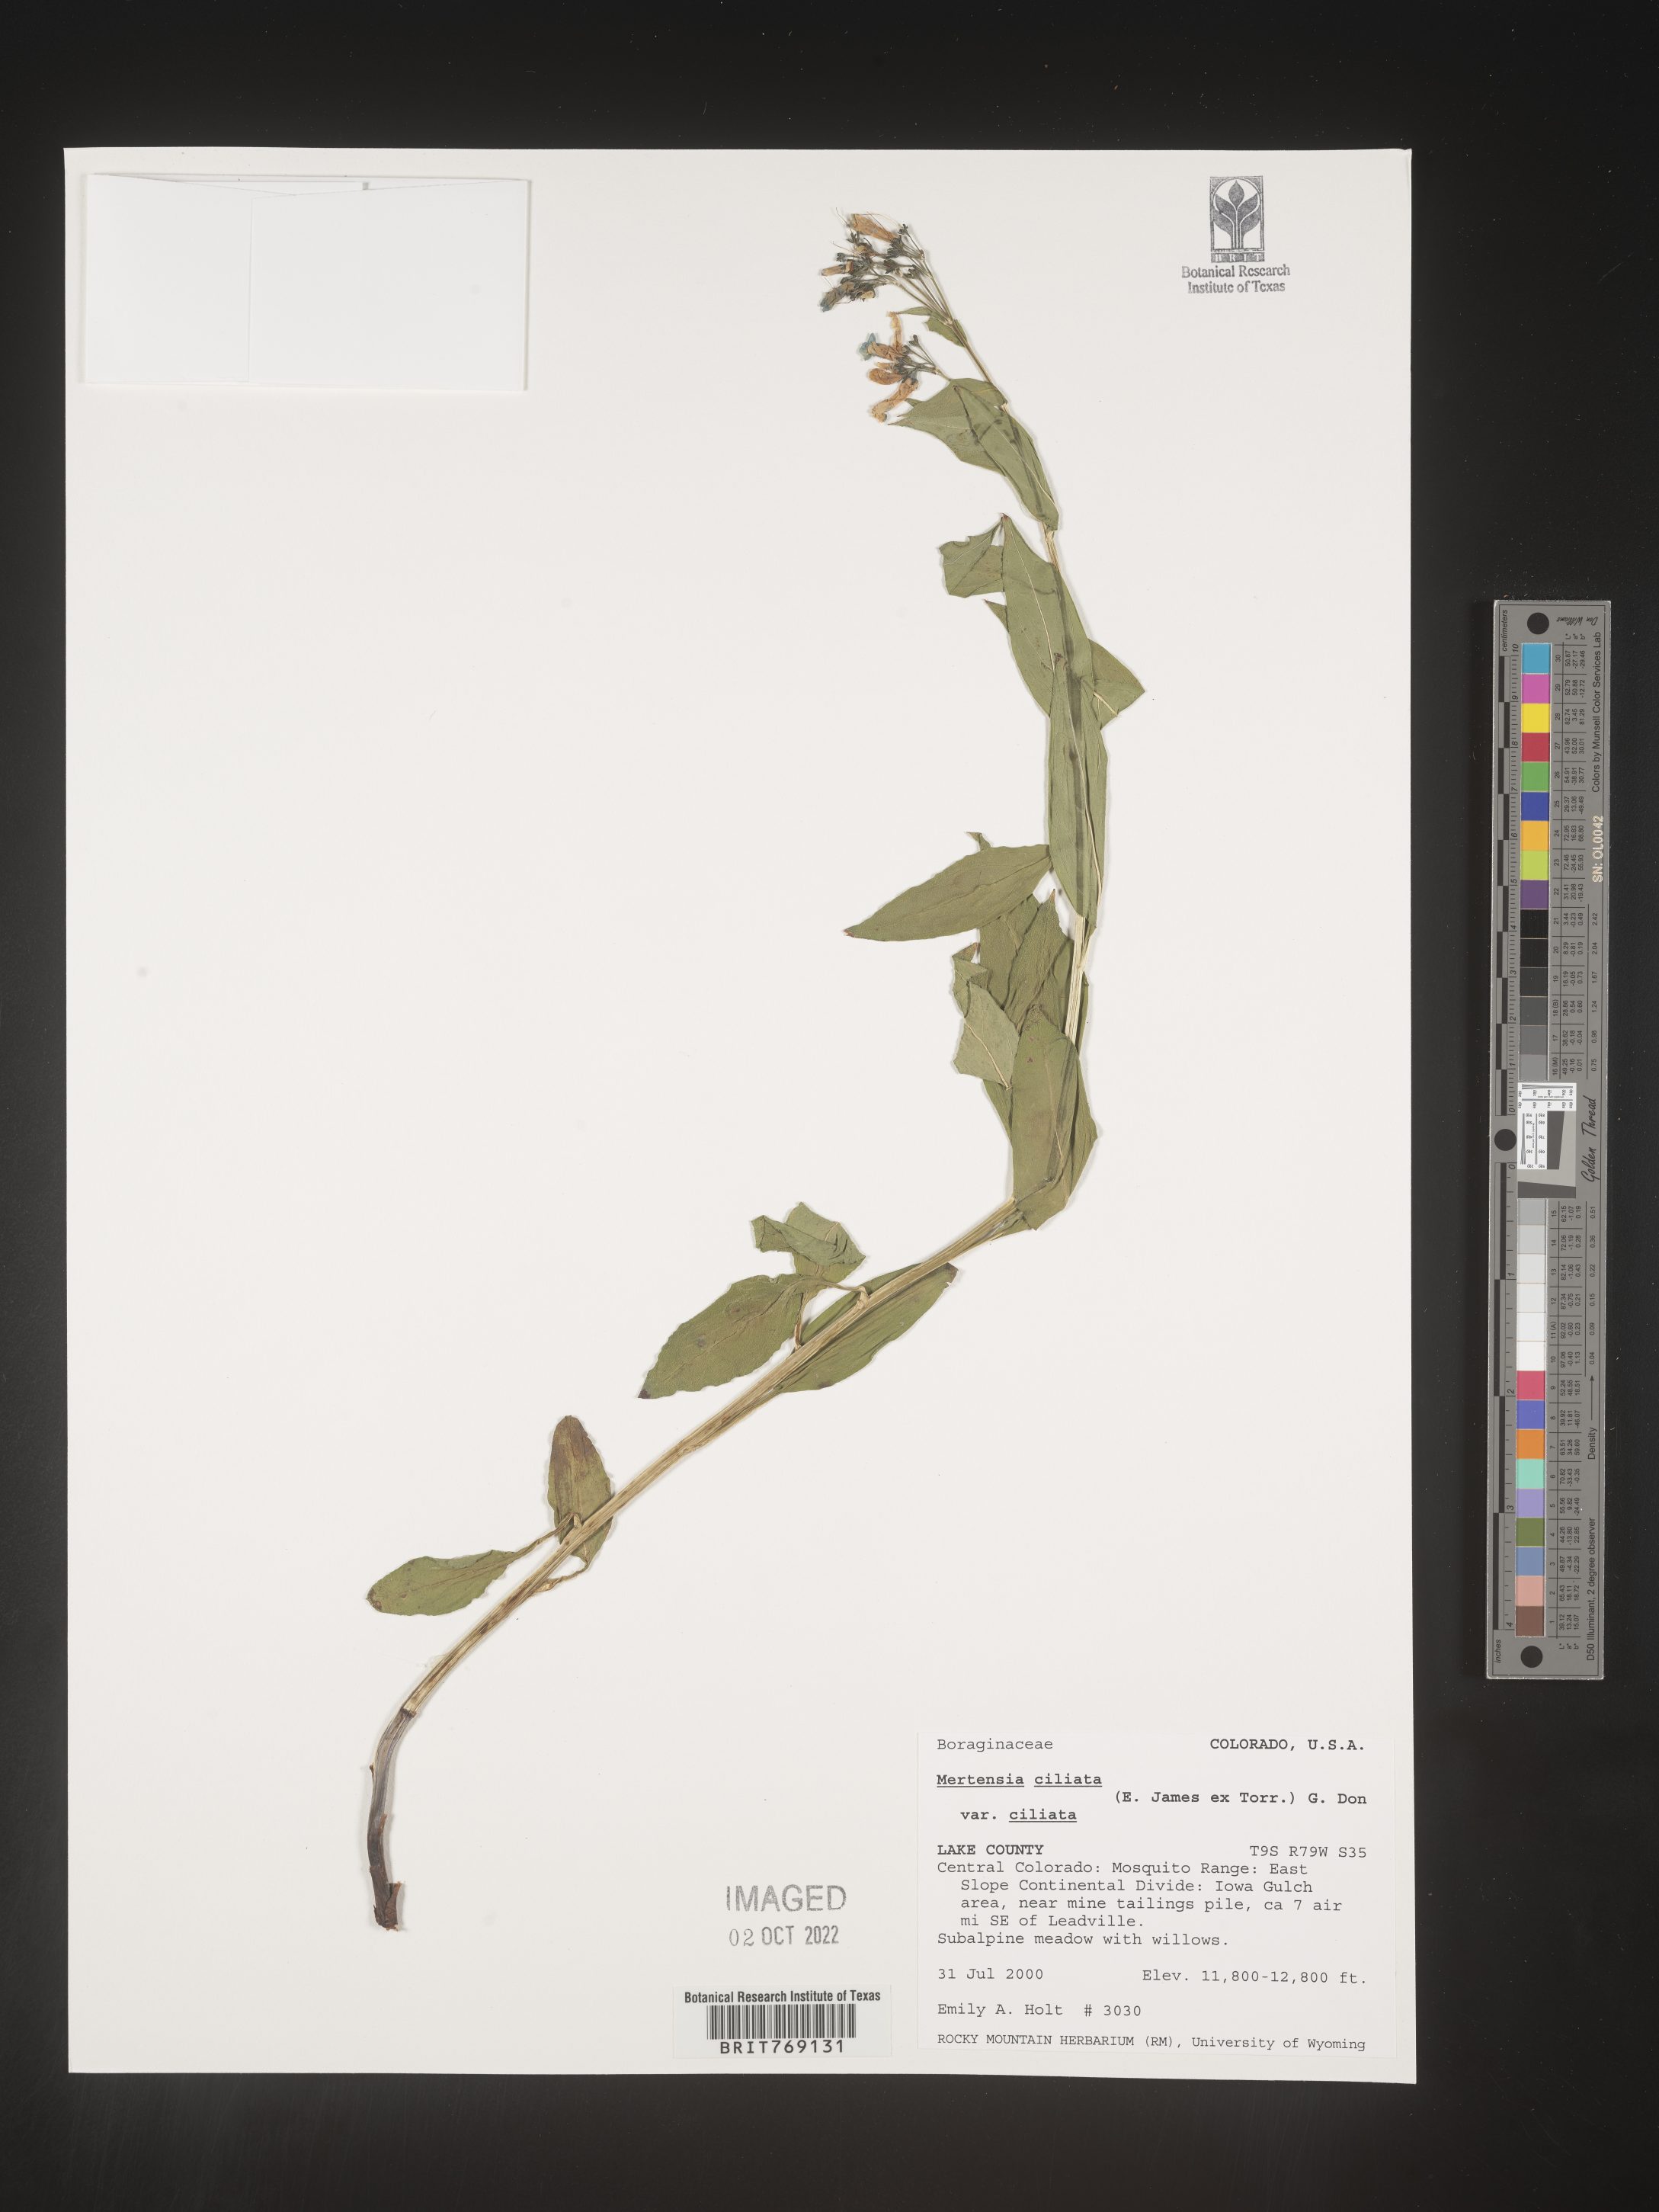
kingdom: Plantae
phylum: Tracheophyta
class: Magnoliopsida
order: Boraginales
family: Boraginaceae
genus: Mertensia
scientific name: Mertensia
